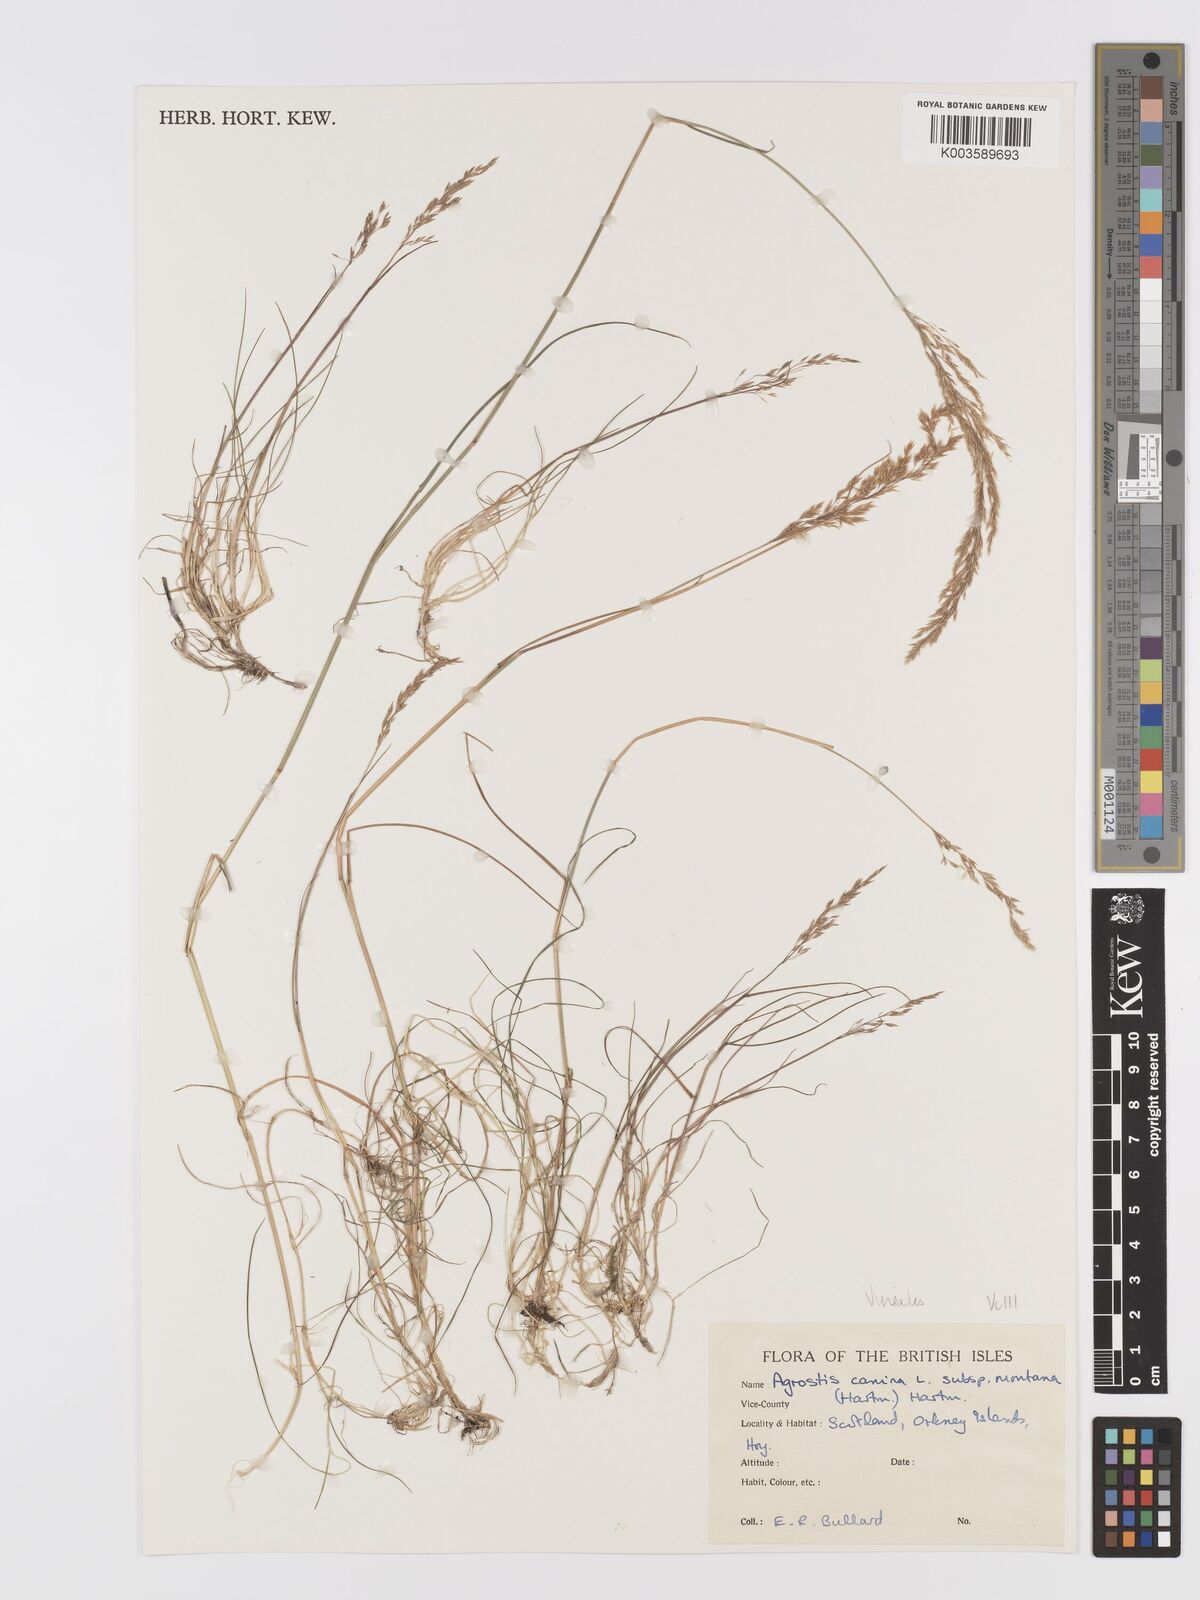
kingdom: Plantae
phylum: Tracheophyta
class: Liliopsida
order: Poales
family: Poaceae
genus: Agrostis
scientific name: Agrostis
